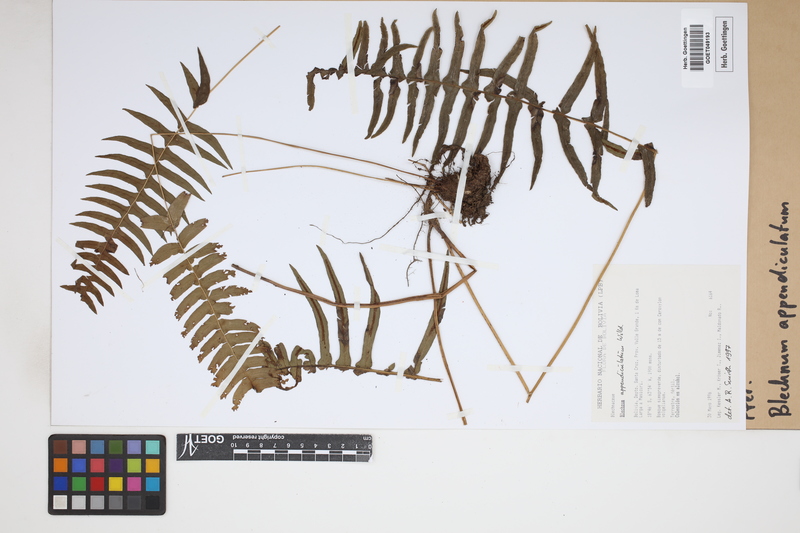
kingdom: Plantae
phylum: Tracheophyta
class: Polypodiopsida
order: Polypodiales
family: Blechnaceae
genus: Blechnum
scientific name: Blechnum appendiculatum
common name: Palm fern
